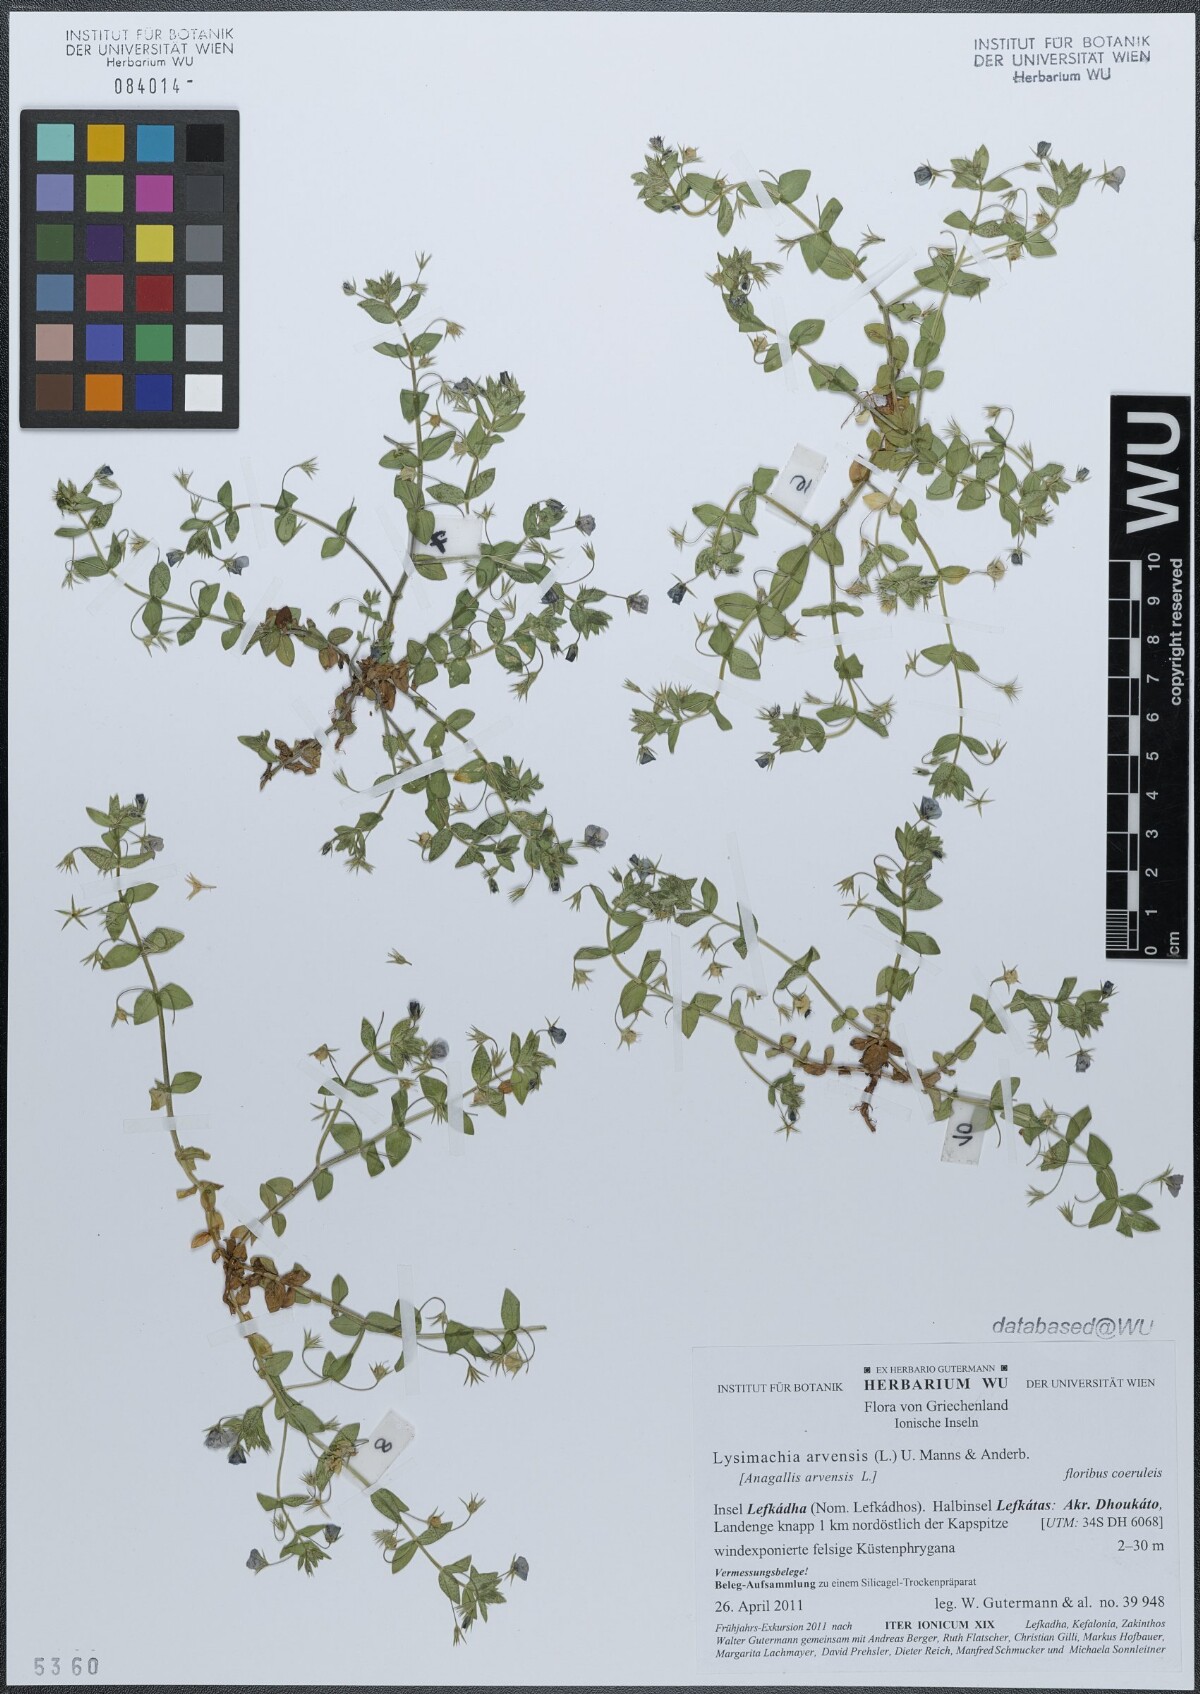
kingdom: Plantae
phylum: Tracheophyta
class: Magnoliopsida
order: Ericales
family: Primulaceae
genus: Lysimachia
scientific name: Lysimachia arvensis
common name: Scarlet pimpernel
